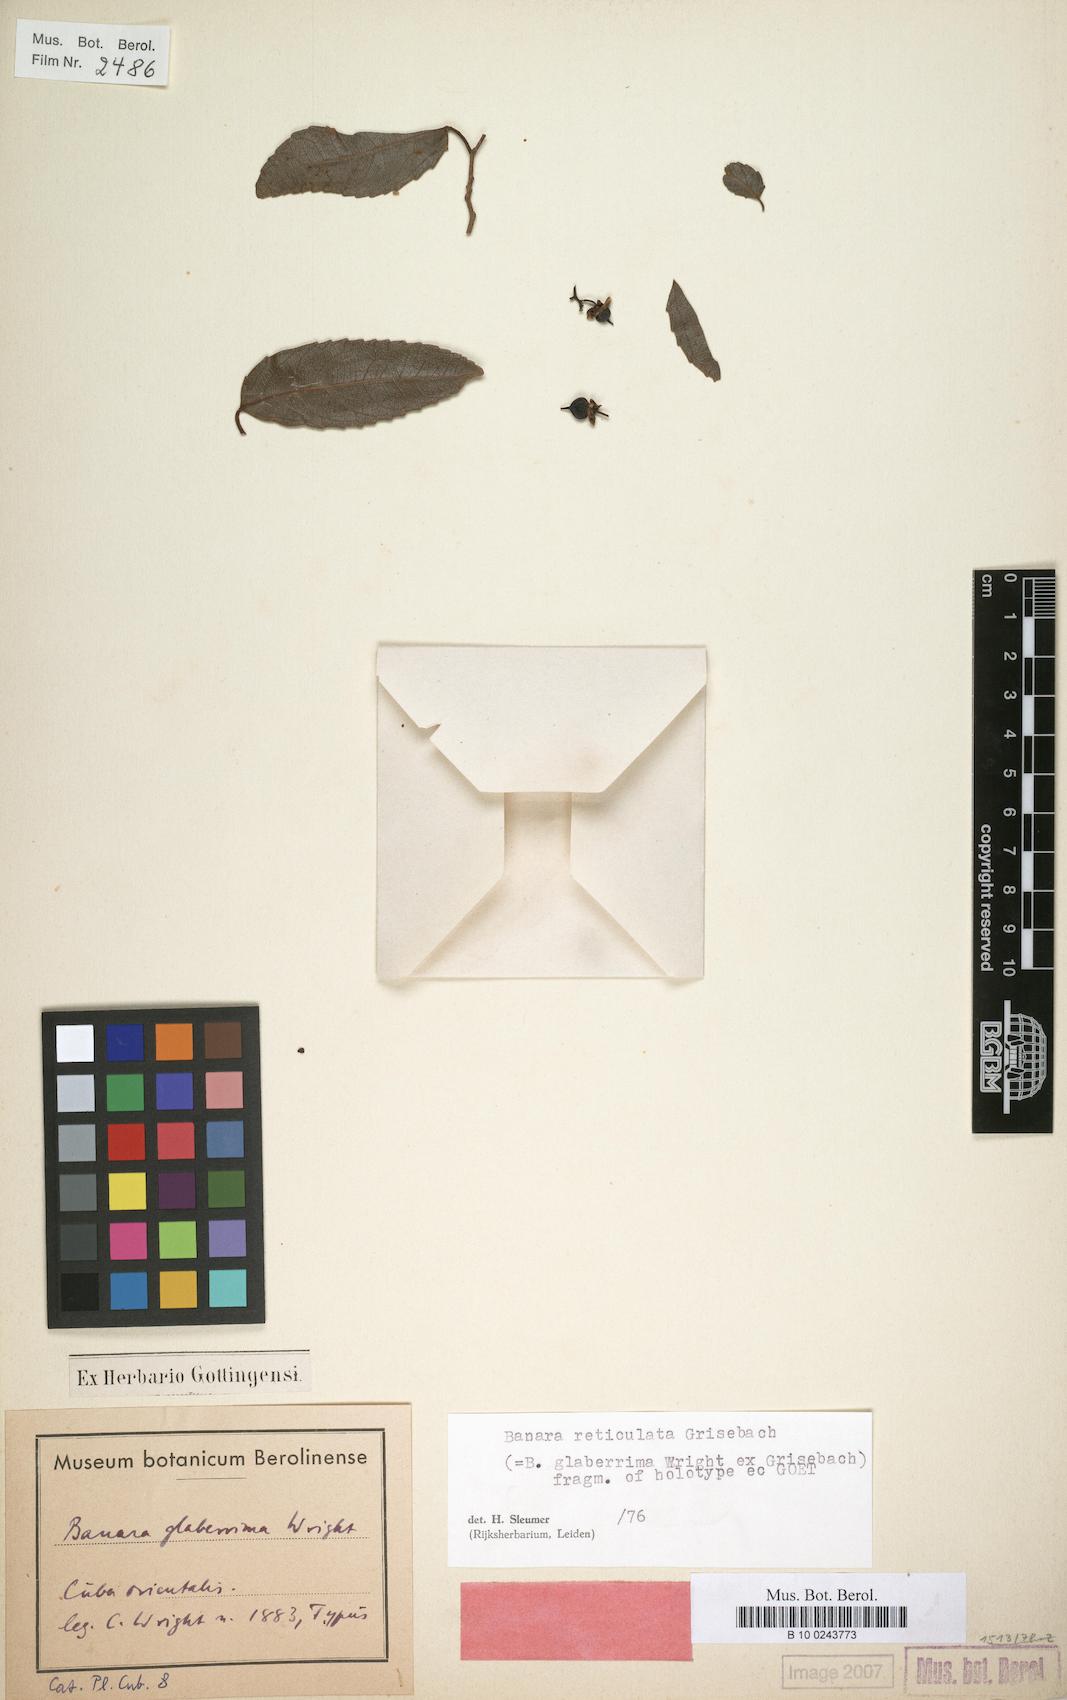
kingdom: Plantae
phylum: Tracheophyta
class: Magnoliopsida
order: Malpighiales
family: Salicaceae
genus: Banara
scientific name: Banara minutiflora
